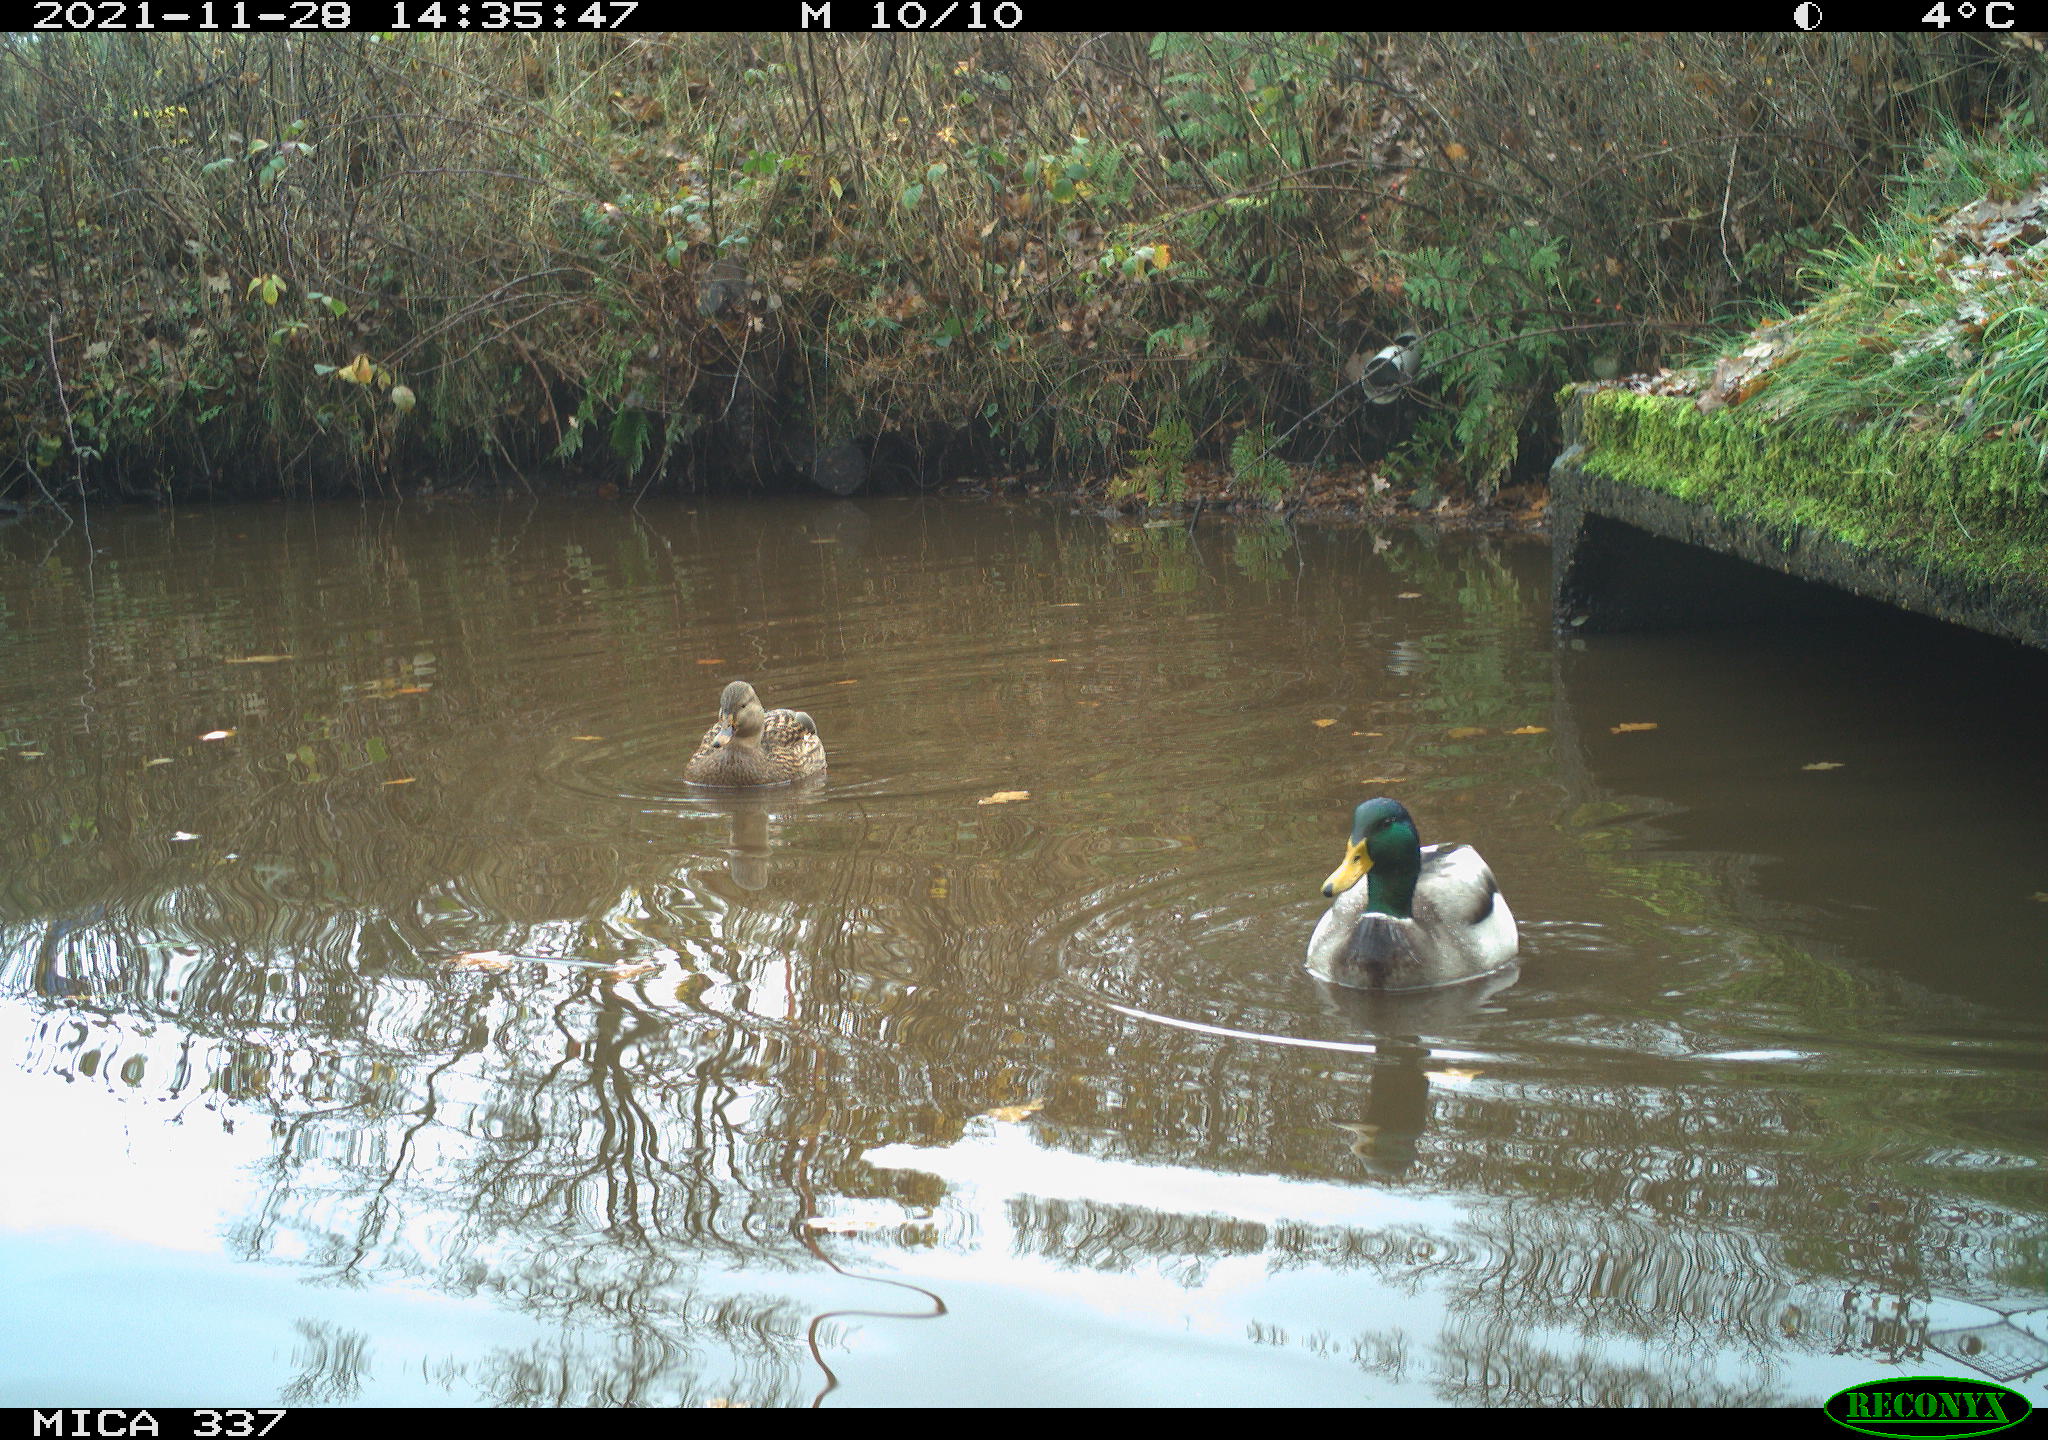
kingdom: Animalia
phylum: Chordata
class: Aves
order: Anseriformes
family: Anatidae
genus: Anas
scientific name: Anas platyrhynchos
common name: Mallard
